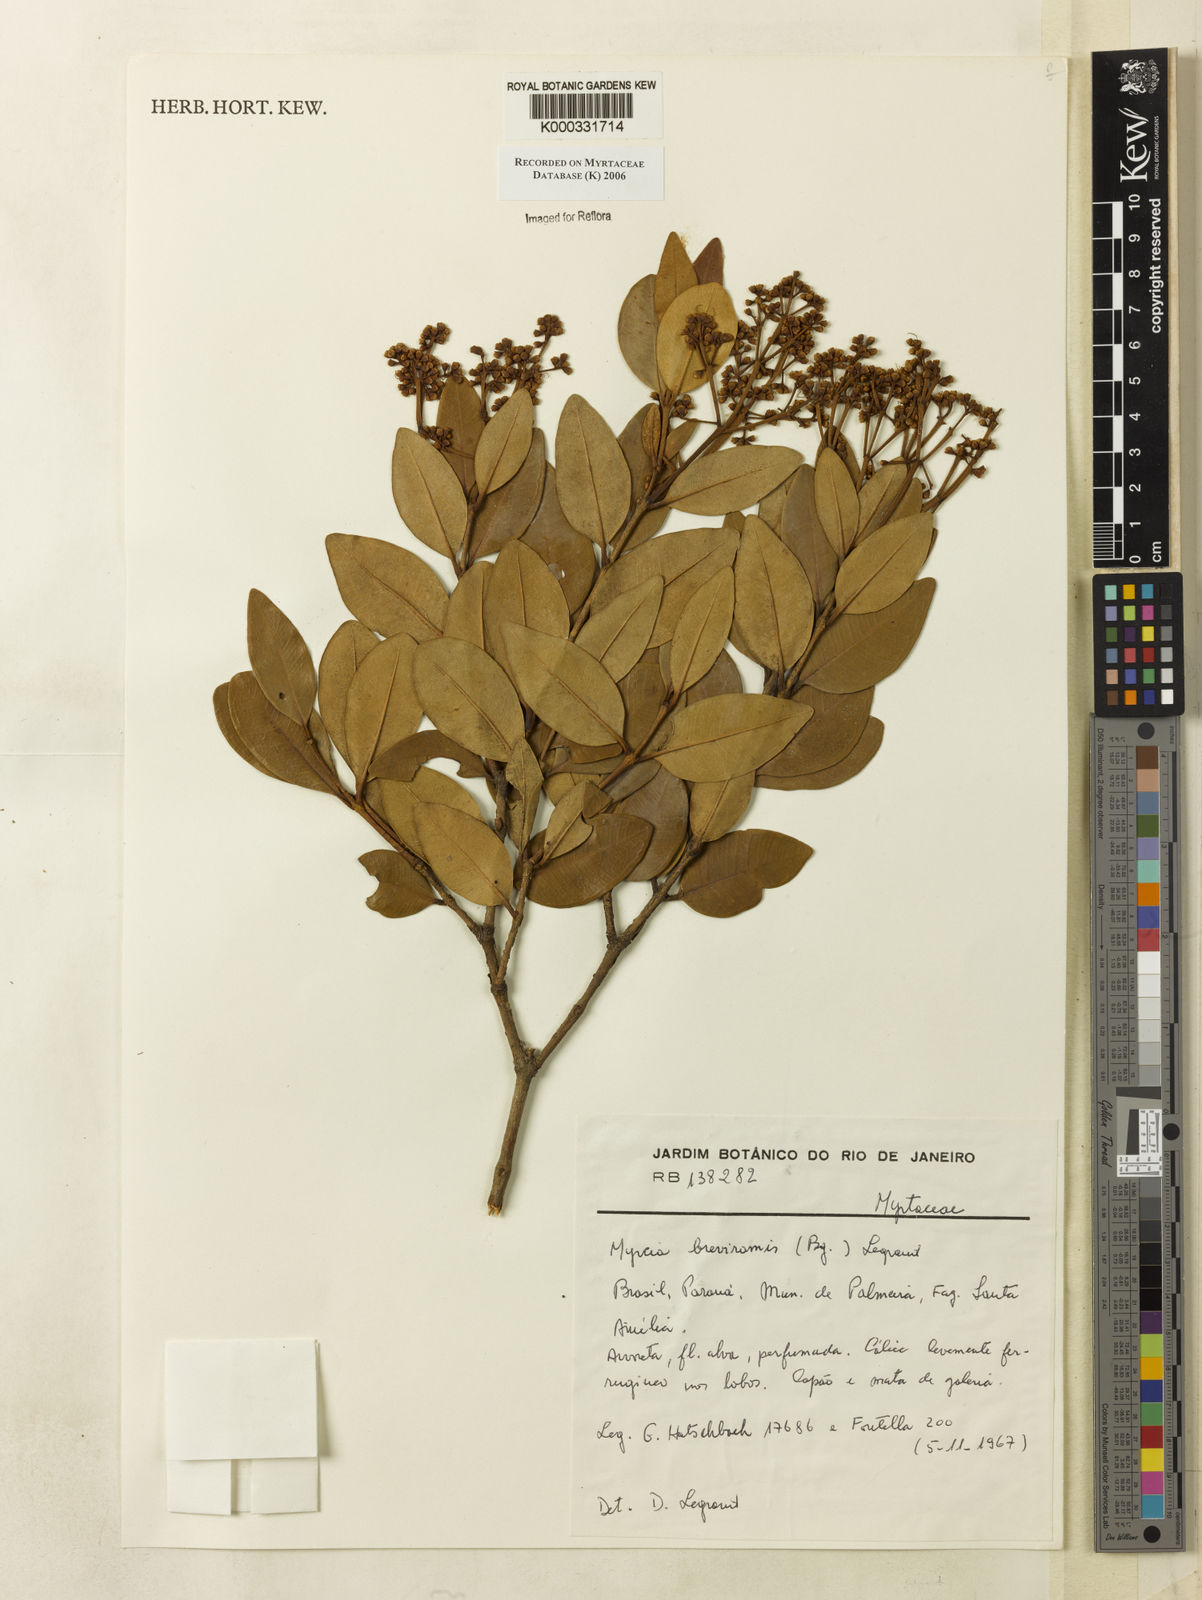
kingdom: Plantae
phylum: Tracheophyta
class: Magnoliopsida
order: Myrtales
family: Myrtaceae
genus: Myrcia
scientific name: Myrcia pulchra
